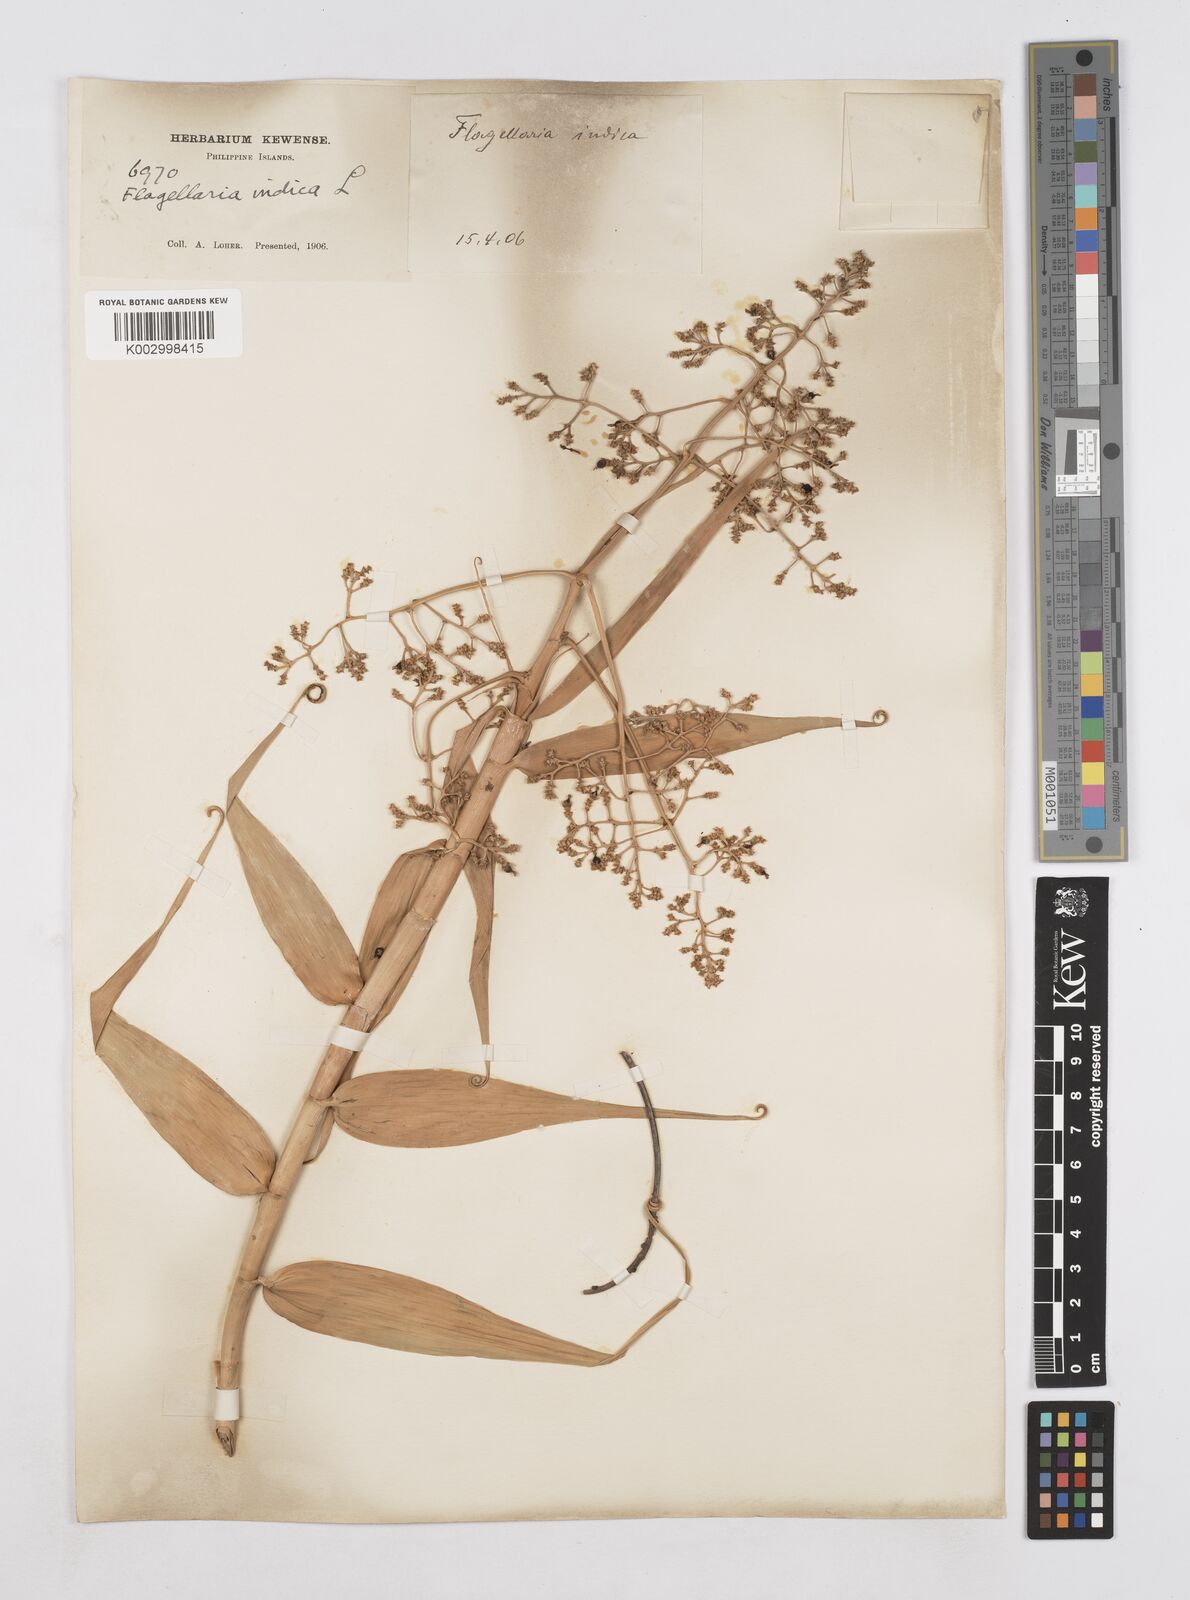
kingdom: Plantae
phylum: Tracheophyta
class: Liliopsida
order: Poales
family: Flagellariaceae
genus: Flagellaria
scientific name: Flagellaria indica
